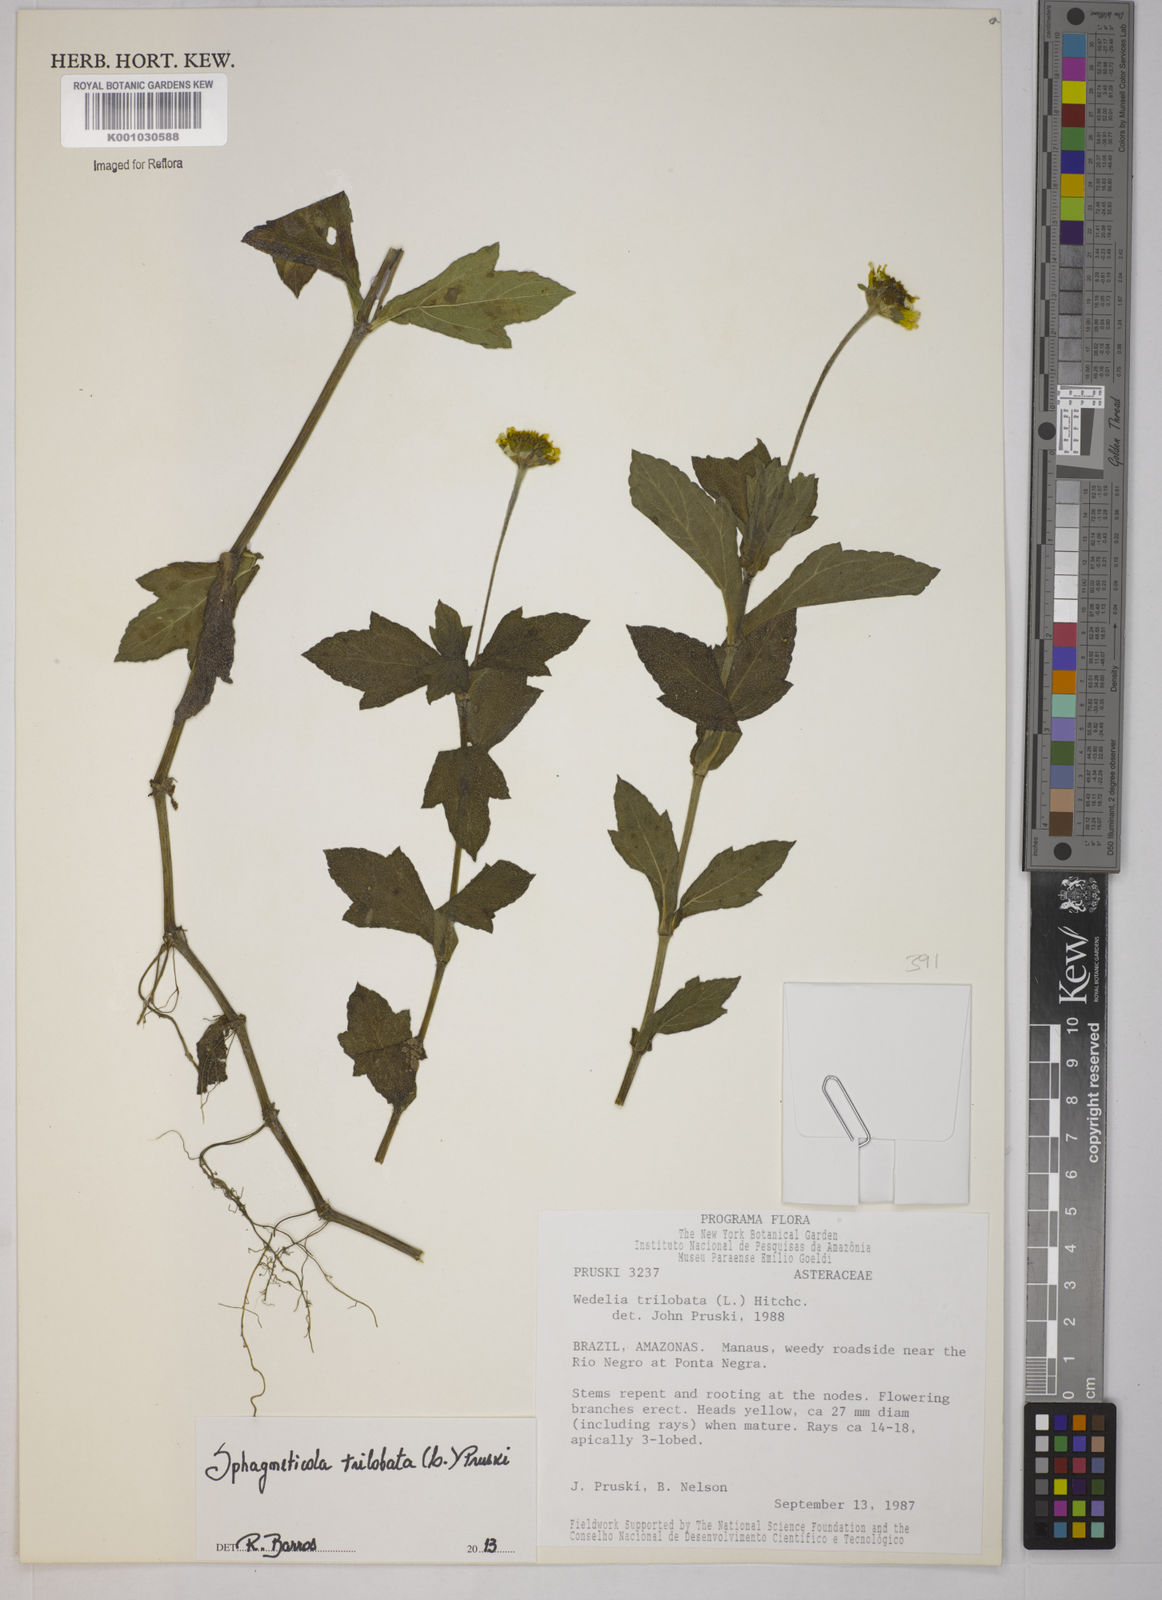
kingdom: Plantae
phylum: Tracheophyta
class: Magnoliopsida
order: Asterales
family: Asteraceae
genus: Sphagneticola
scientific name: Sphagneticola trilobata
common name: Bay biscayne creeping-oxeye
